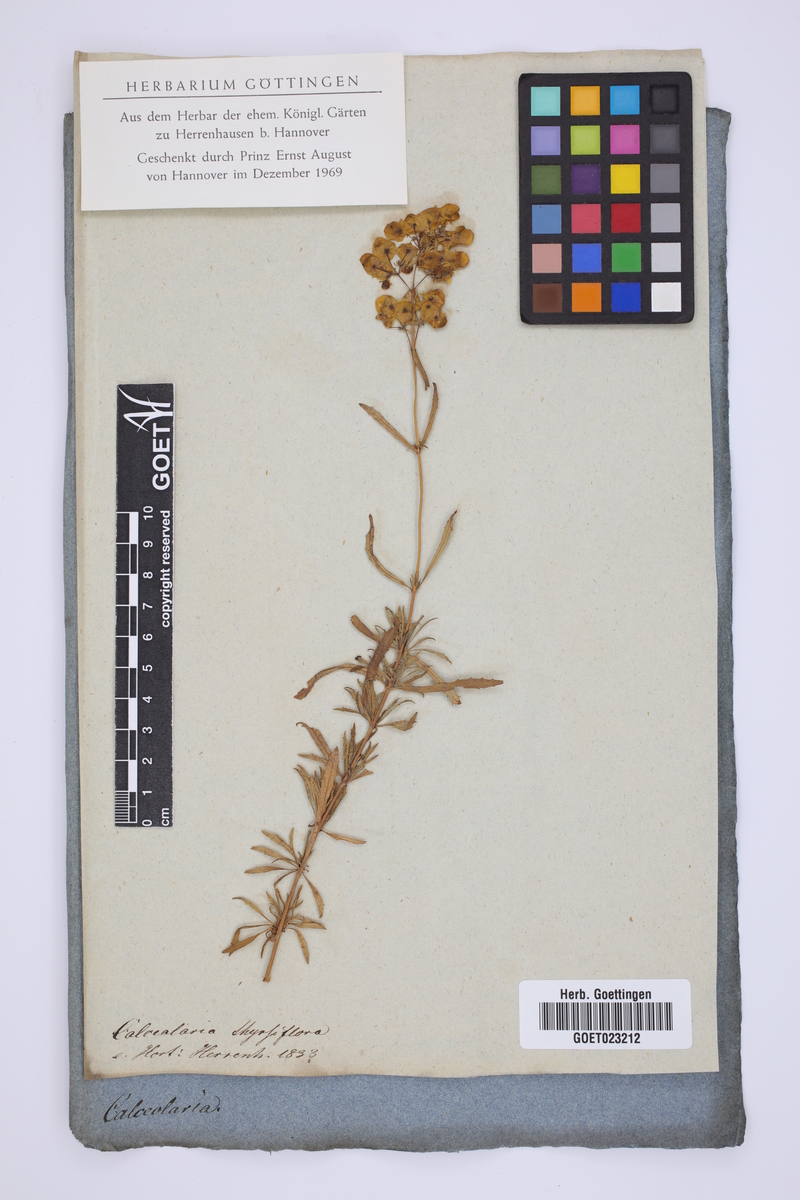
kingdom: Plantae
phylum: Tracheophyta
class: Magnoliopsida
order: Lamiales
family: Calceolariaceae
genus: Calceolaria
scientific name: Calceolaria thyrsiflora
